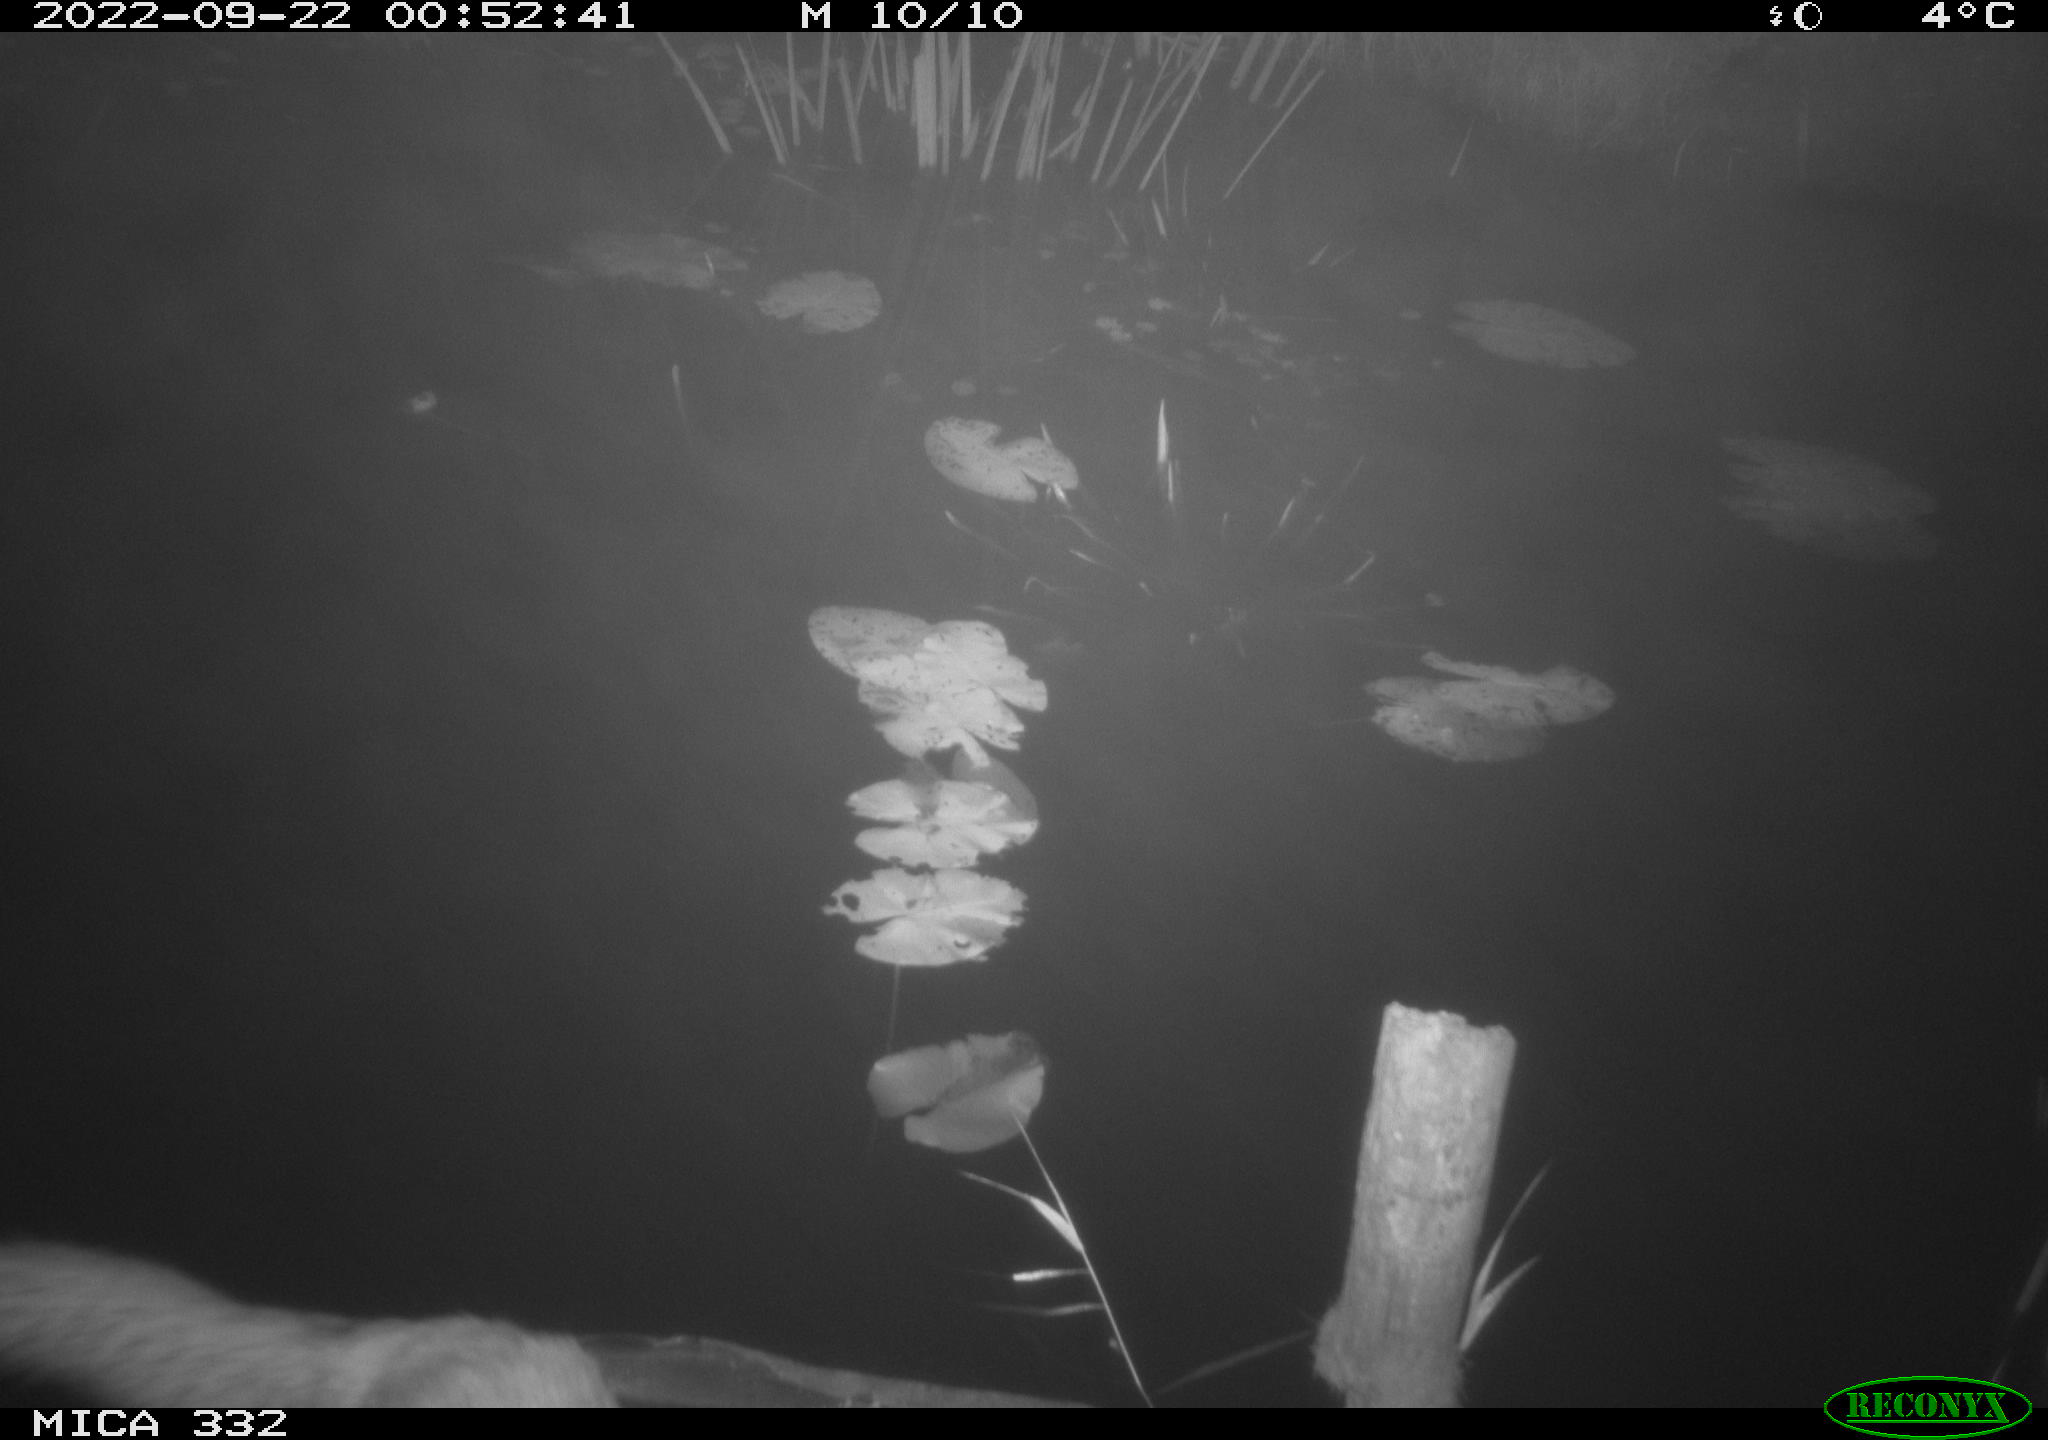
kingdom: Animalia
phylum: Chordata
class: Mammalia
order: Carnivora
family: Canidae
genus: Vulpes
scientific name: Vulpes vulpes
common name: Red fox
